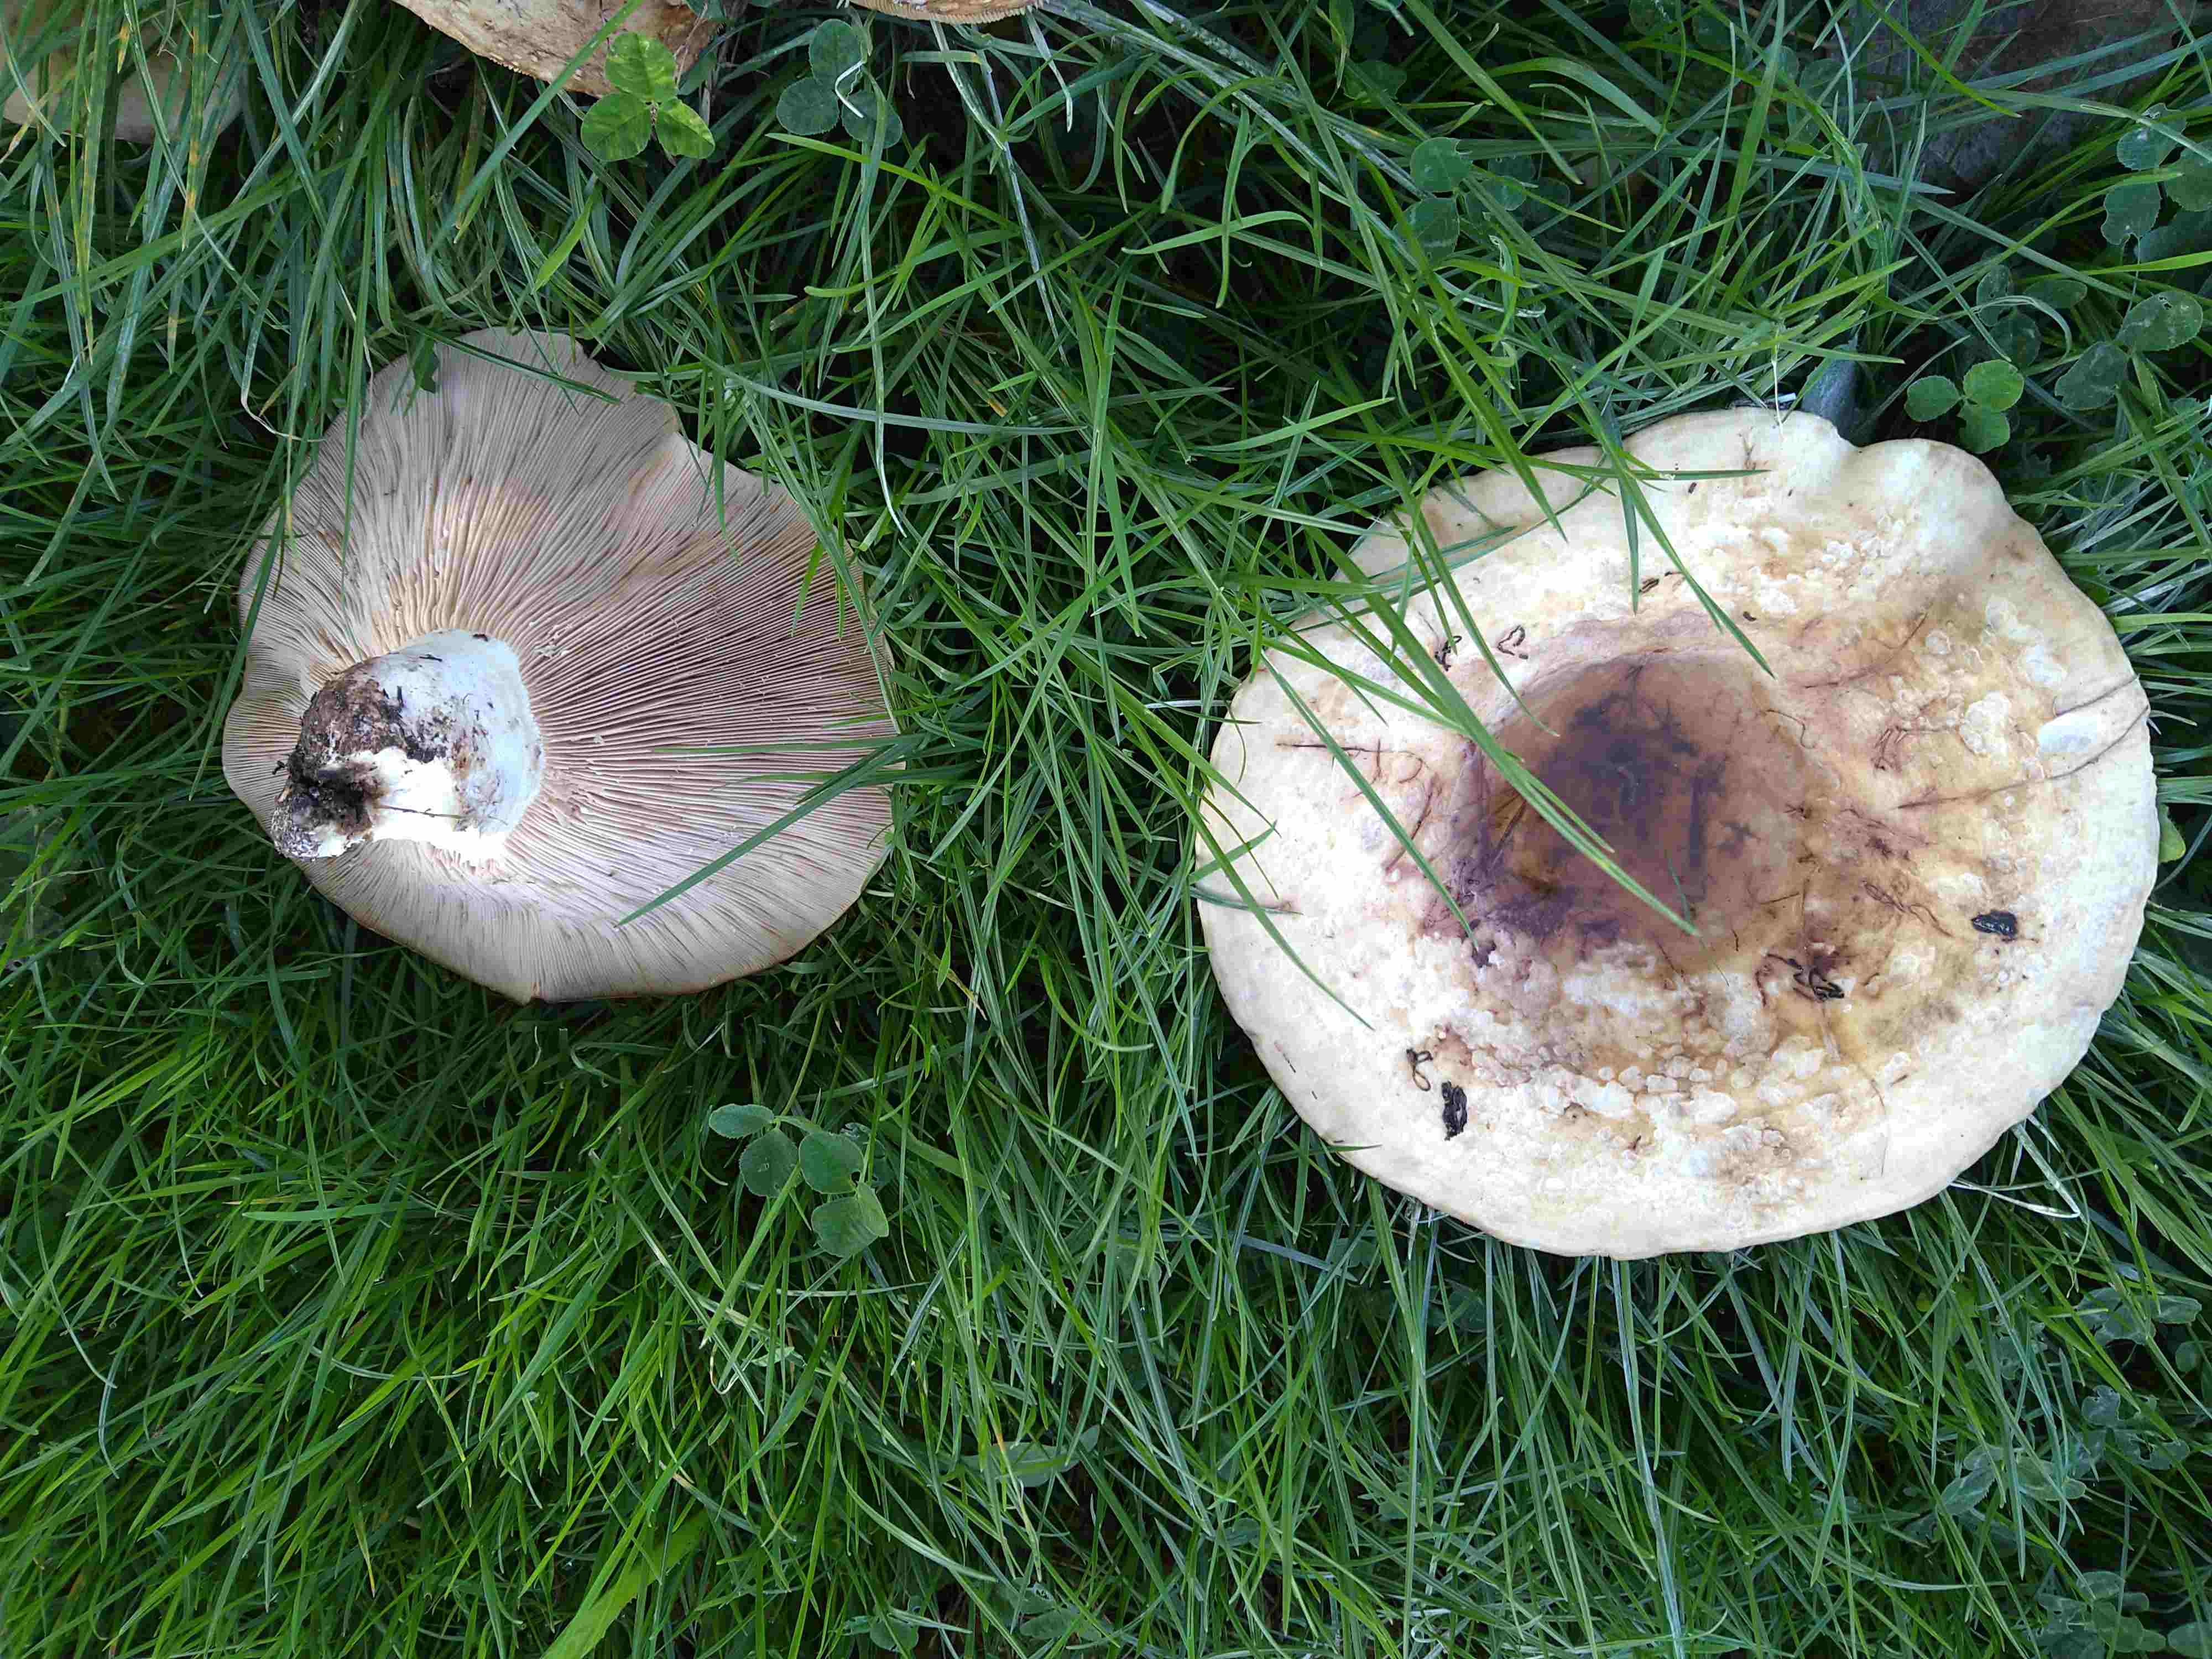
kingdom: Fungi
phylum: Basidiomycota
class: Agaricomycetes
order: Russulales
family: Russulaceae
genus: Lactarius
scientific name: Lactarius controversus
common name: rosabladet mælkehat
